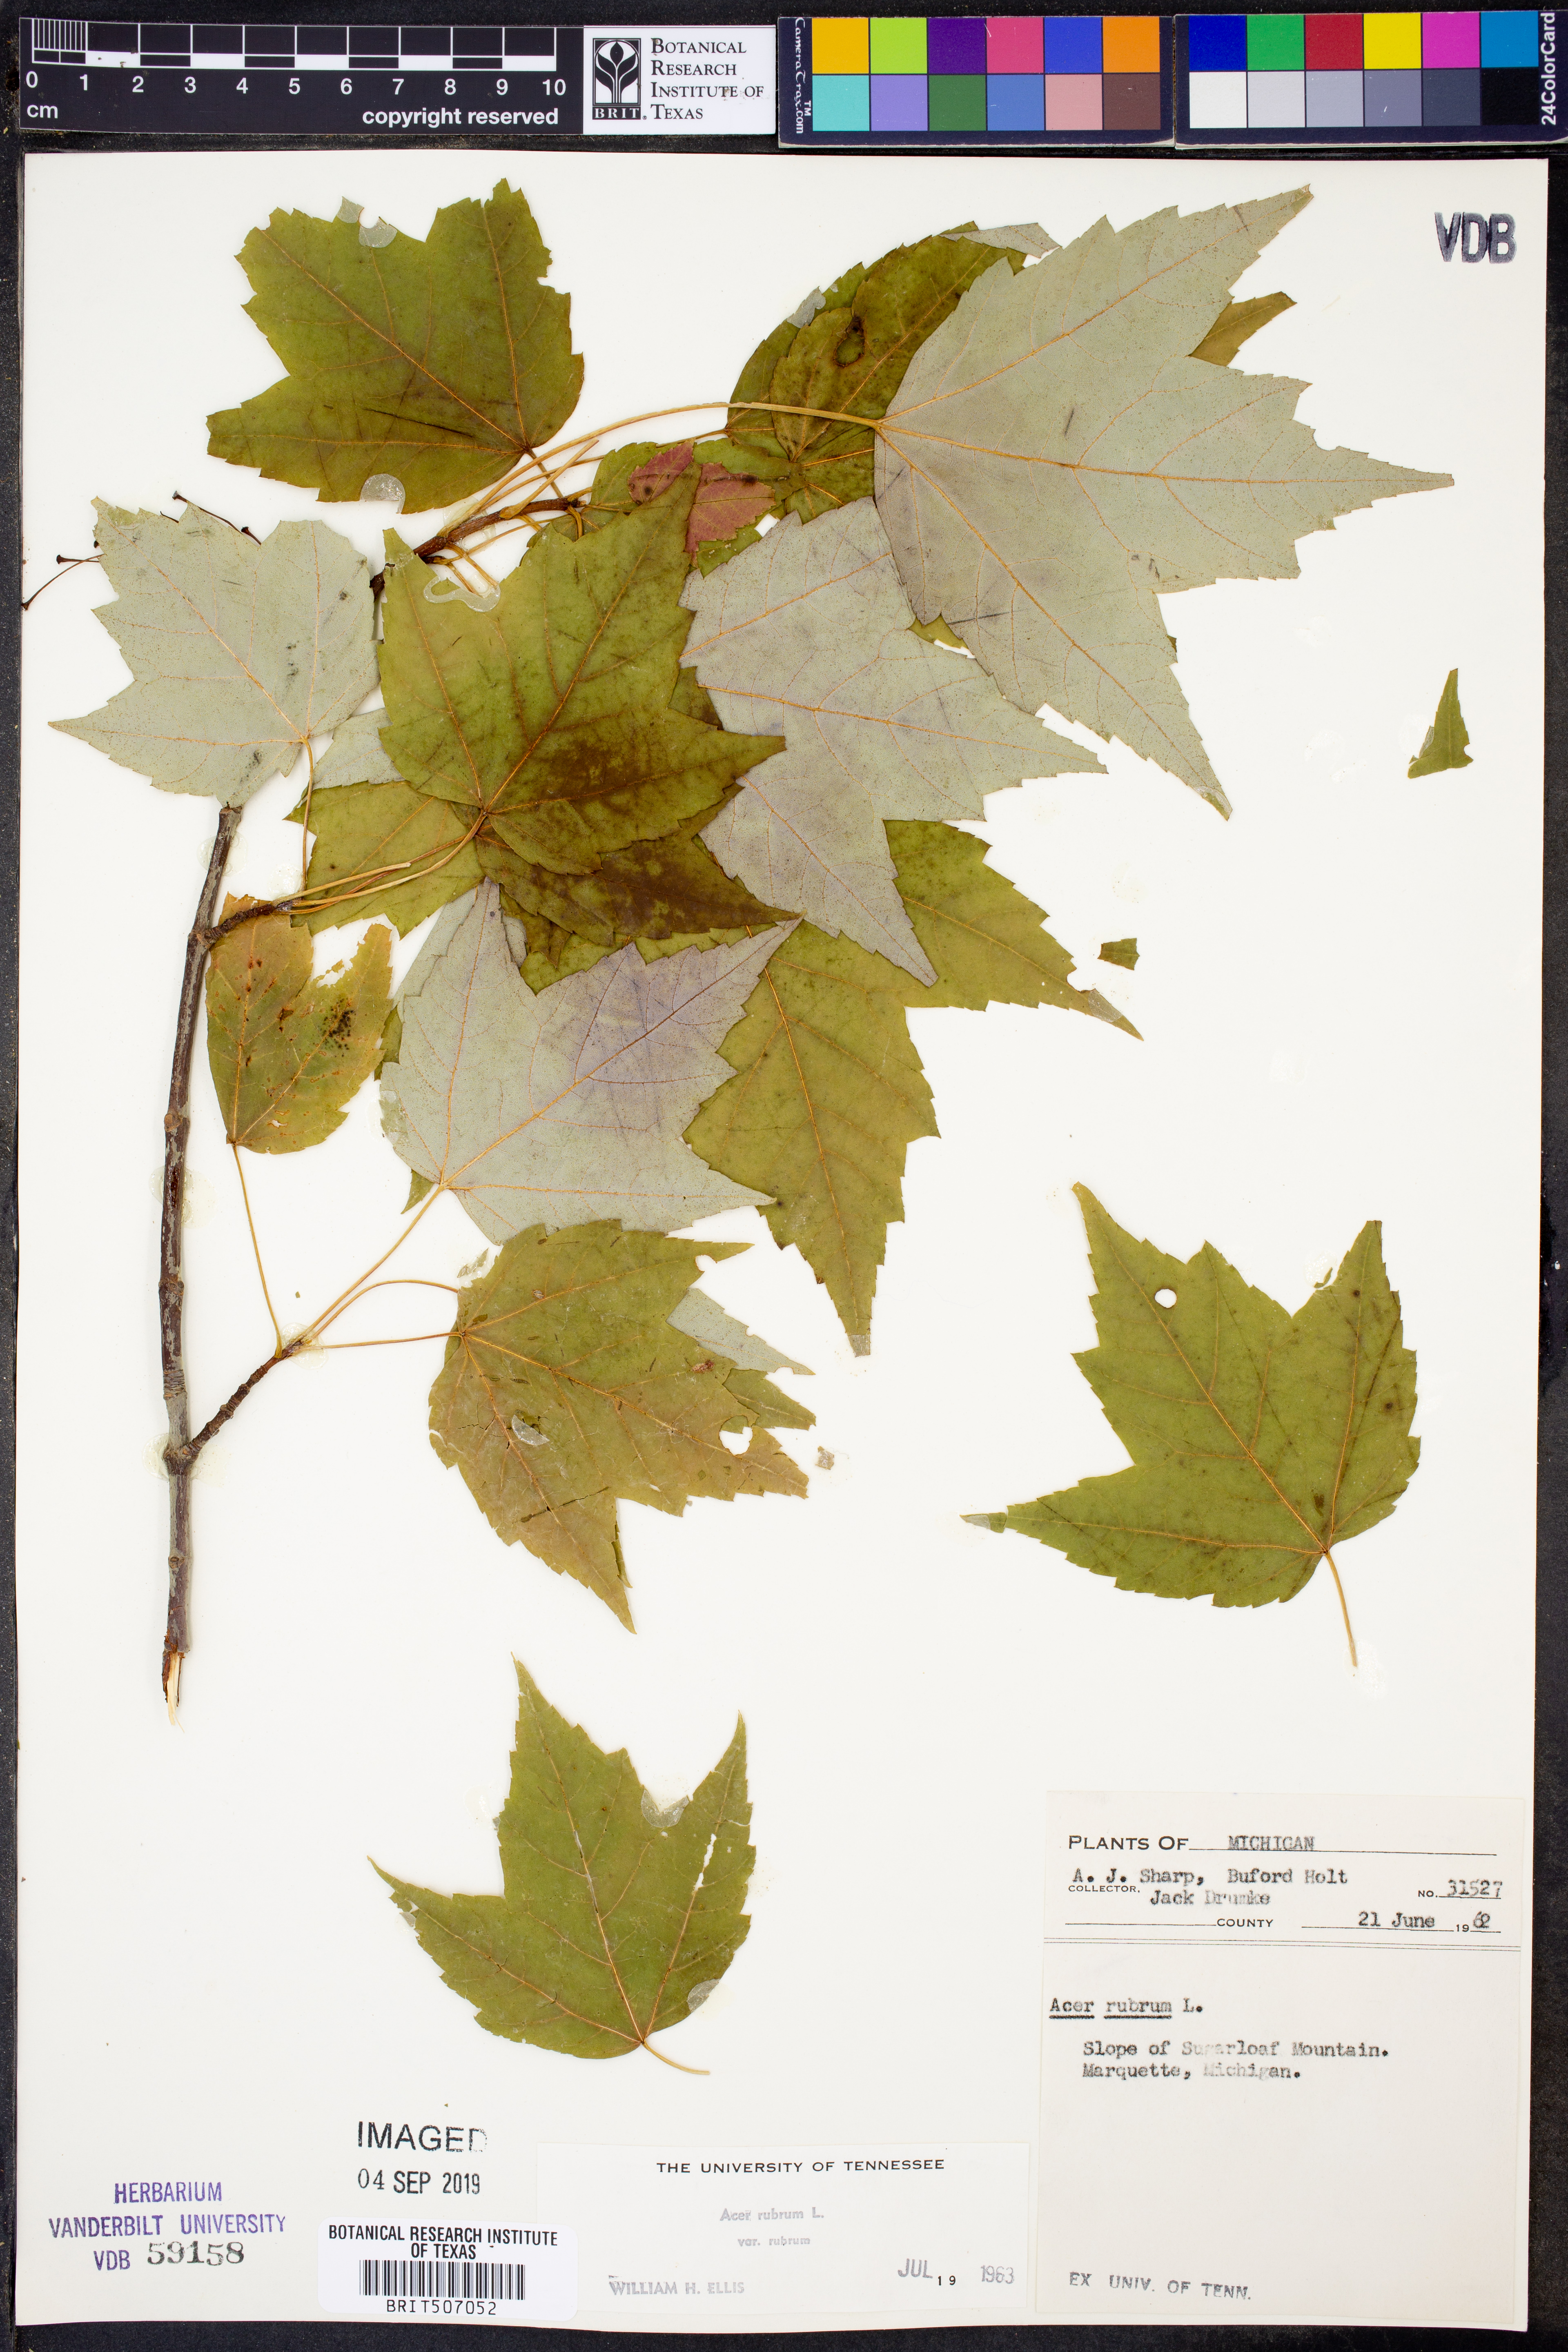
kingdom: Plantae
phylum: Tracheophyta
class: Magnoliopsida
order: Sapindales
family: Sapindaceae
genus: Acer
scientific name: Acer rubrum
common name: Red maple
